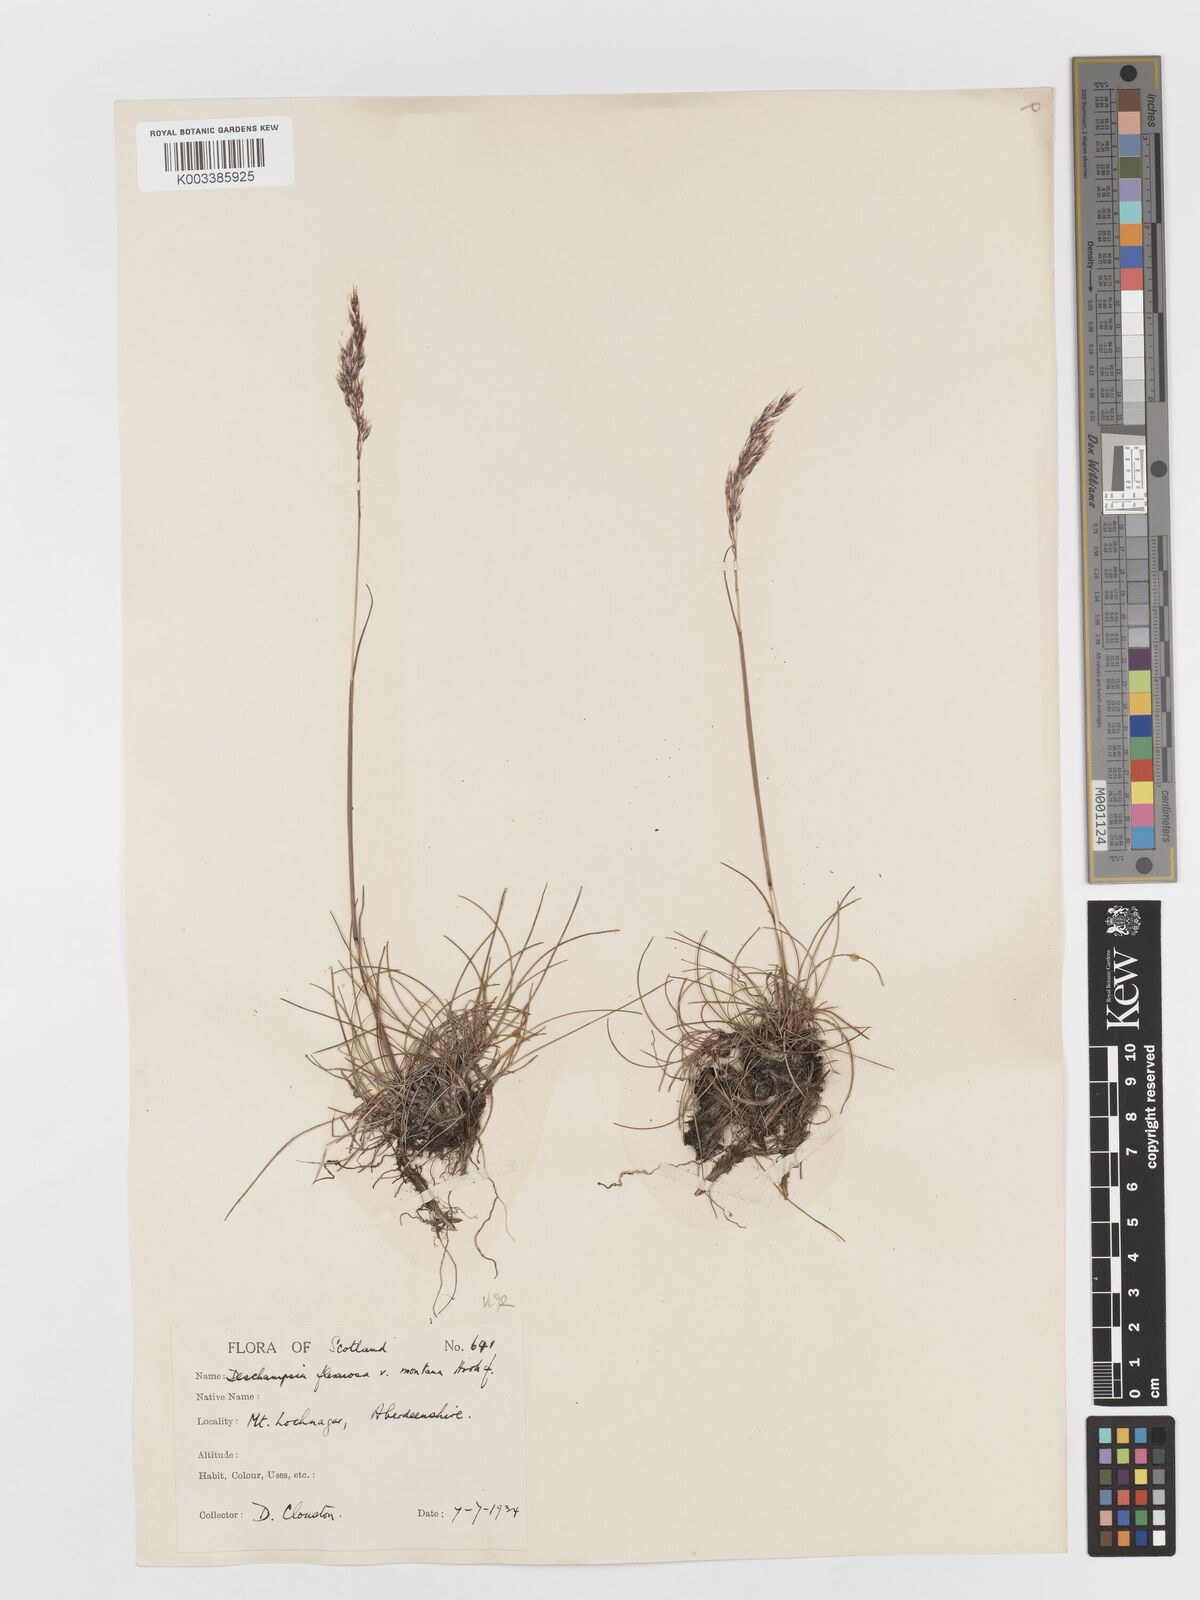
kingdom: Plantae
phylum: Tracheophyta
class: Liliopsida
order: Poales
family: Poaceae
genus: Avenella
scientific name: Avenella flexuosa
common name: Wavy hairgrass
